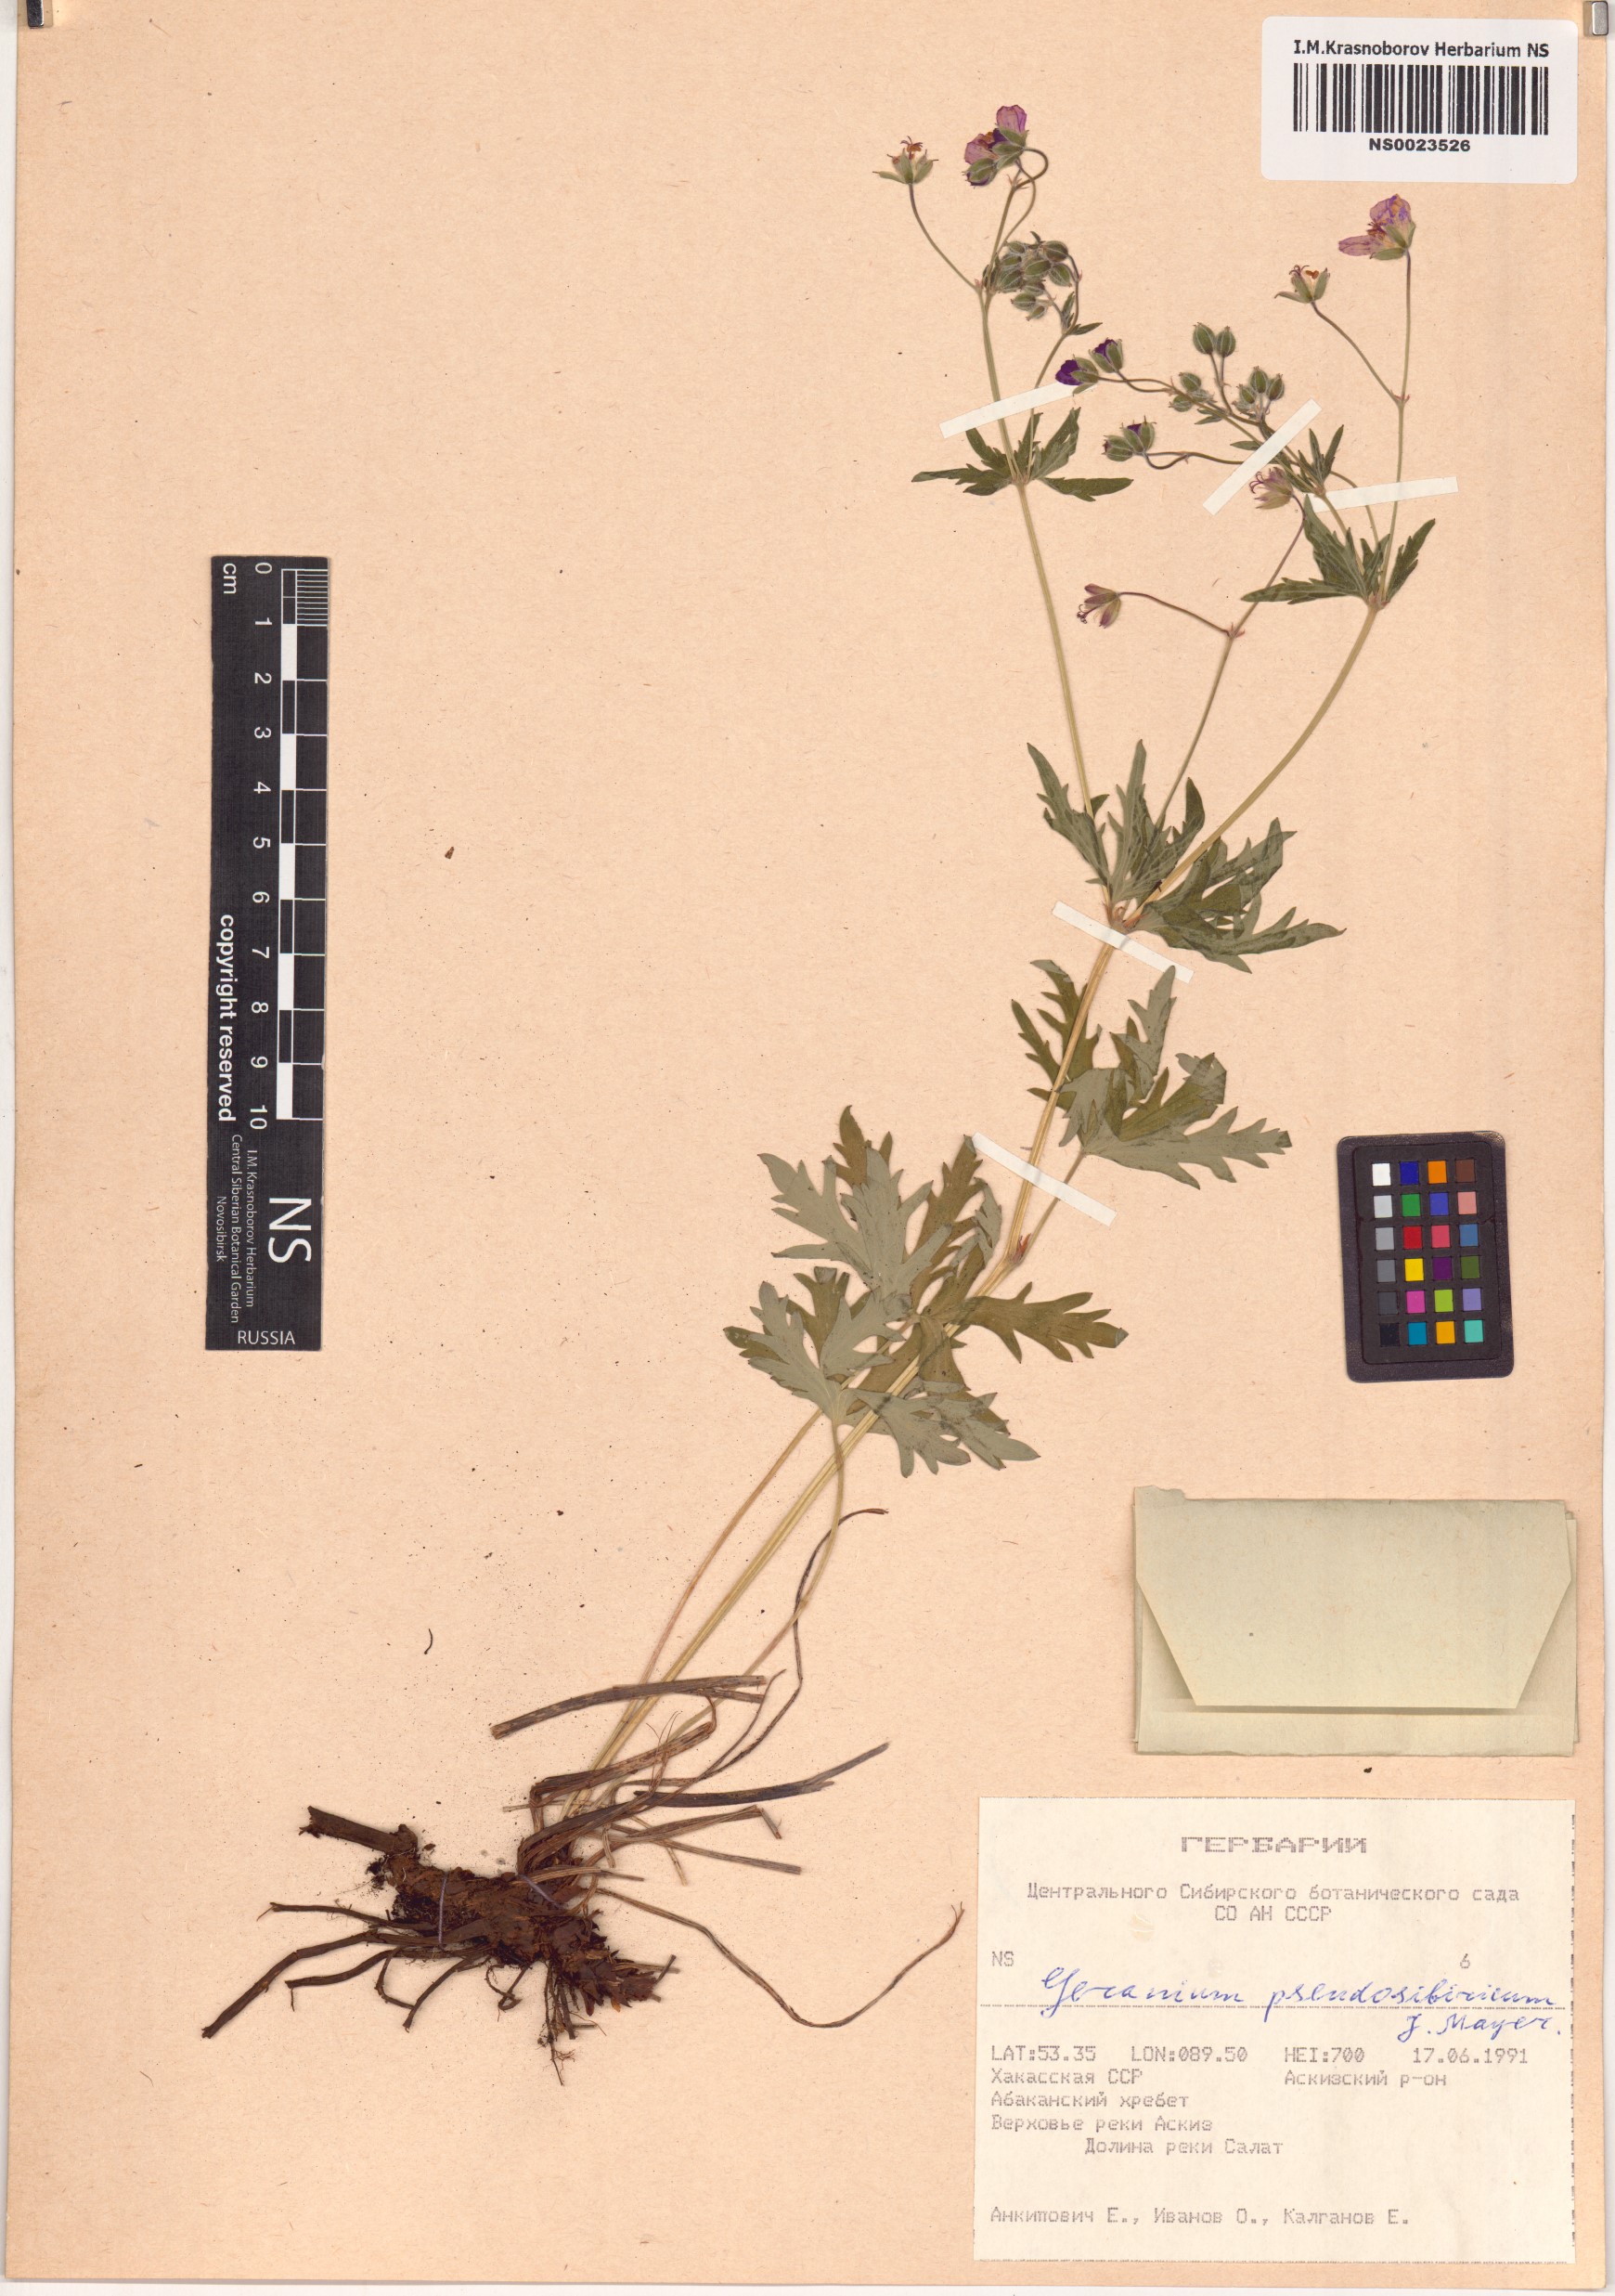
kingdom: Plantae
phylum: Tracheophyta
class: Magnoliopsida
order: Geraniales
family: Geraniaceae
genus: Geranium
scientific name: Geranium pseudosibiricum
